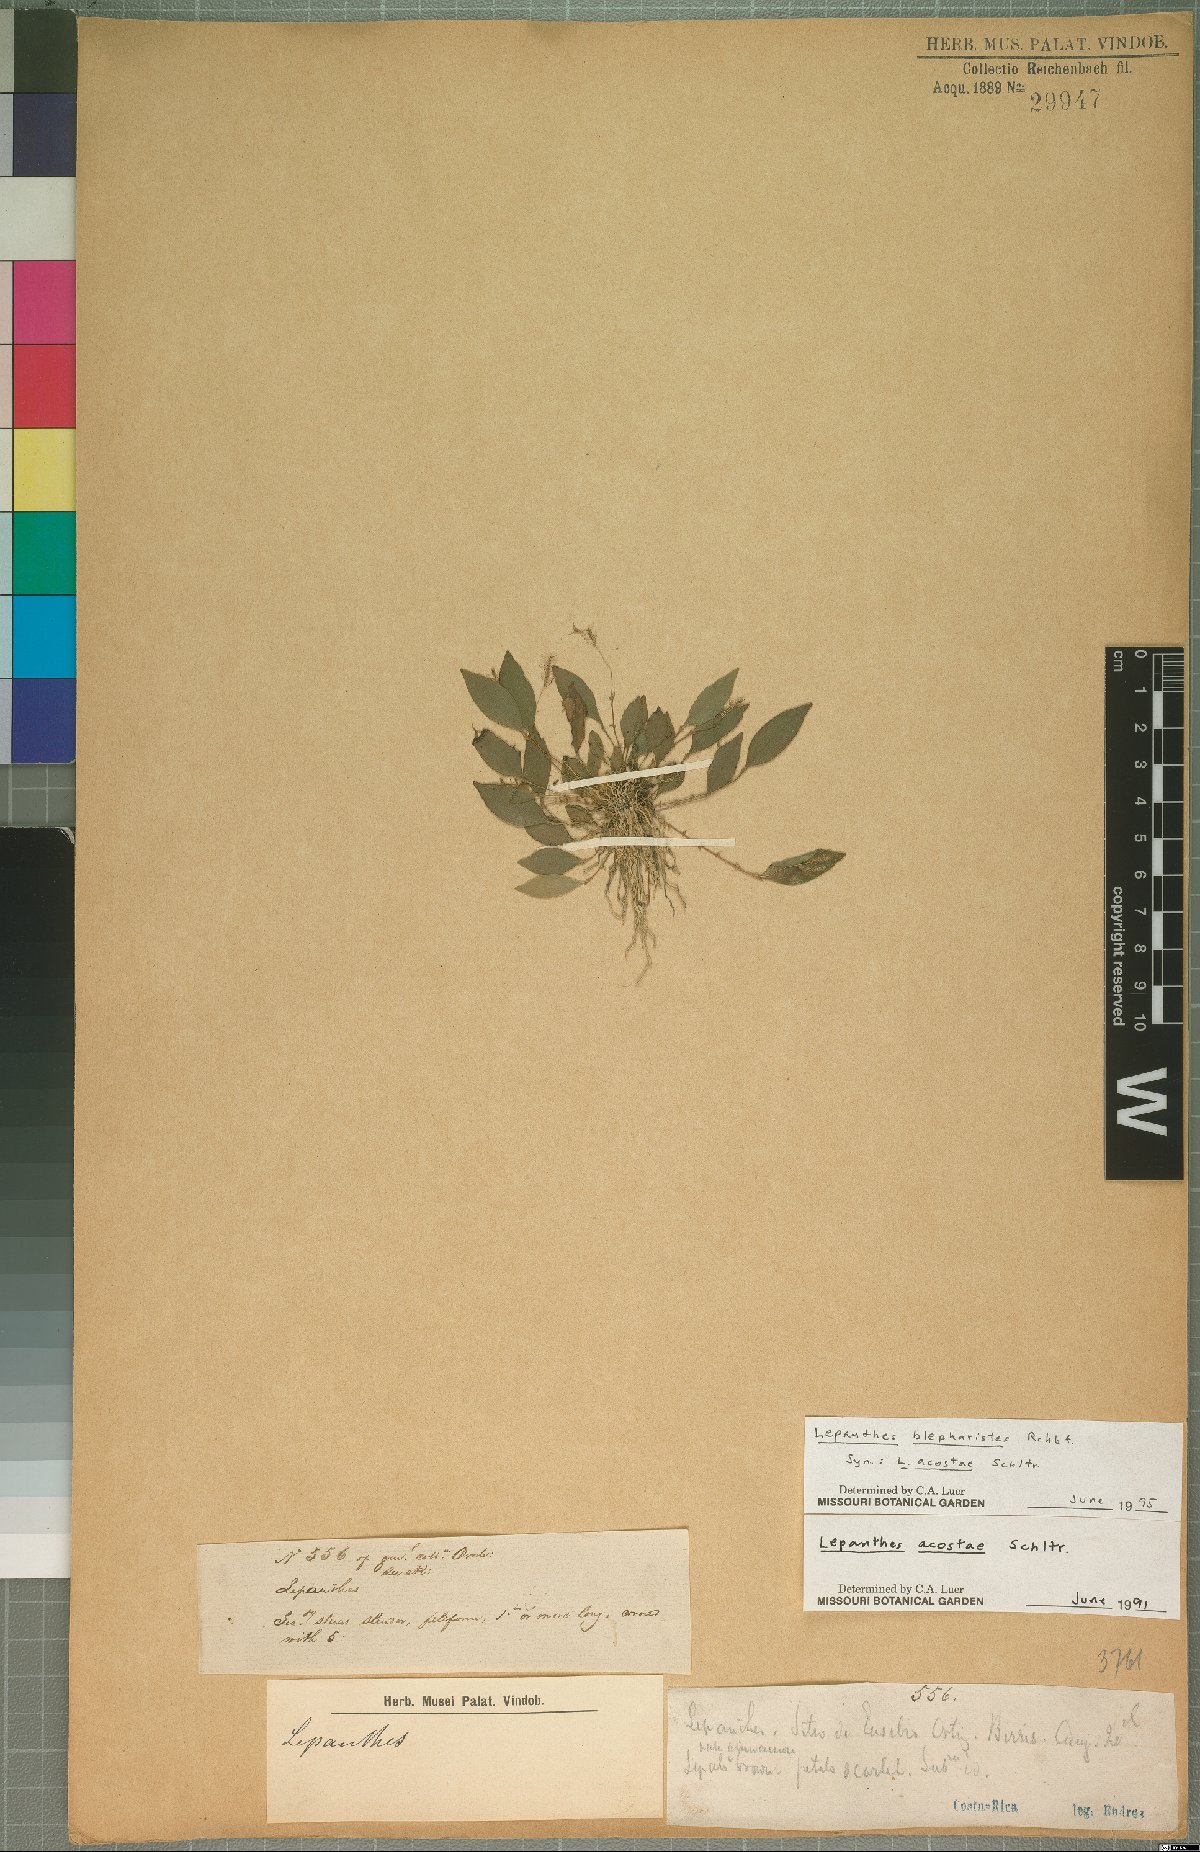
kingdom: Plantae
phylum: Tracheophyta
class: Liliopsida
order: Asparagales
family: Orchidaceae
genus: Lepanthes
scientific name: Lepanthes blepharistes
